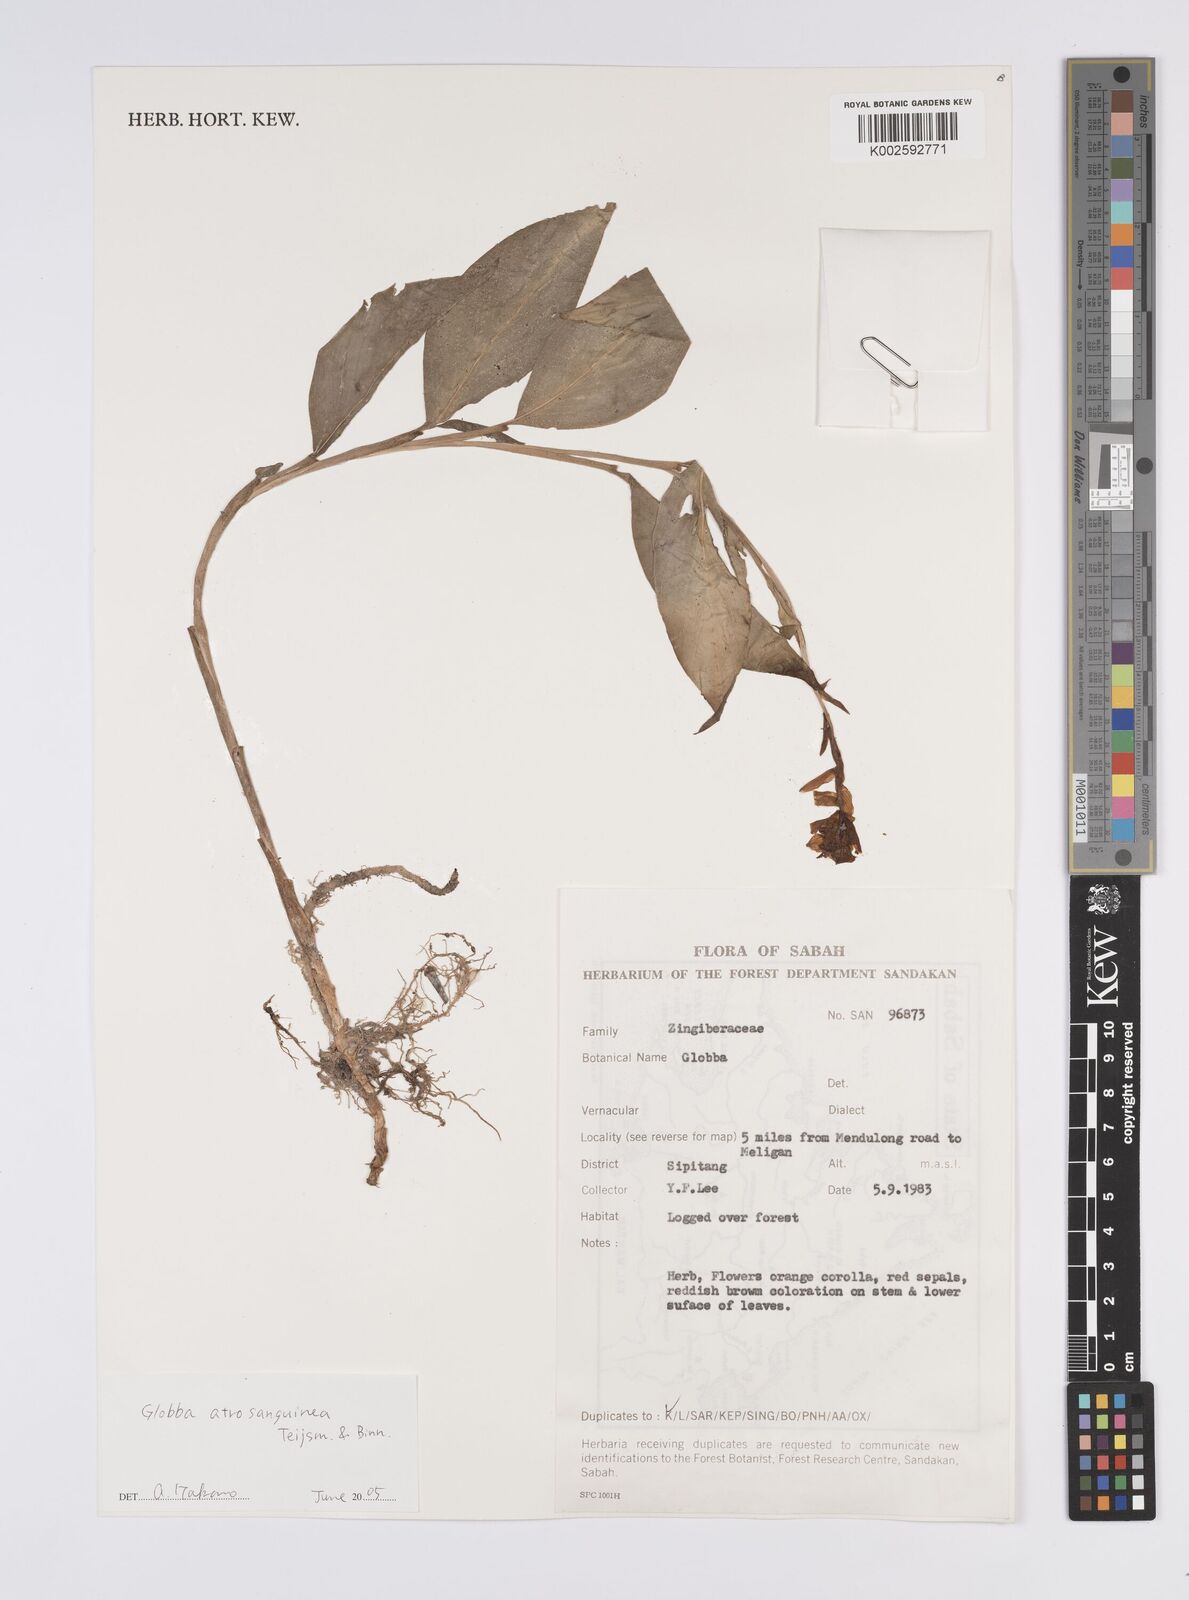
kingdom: Plantae
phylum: Tracheophyta
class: Liliopsida
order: Zingiberales
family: Zingiberaceae
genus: Globba
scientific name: Globba atrosanguinea
